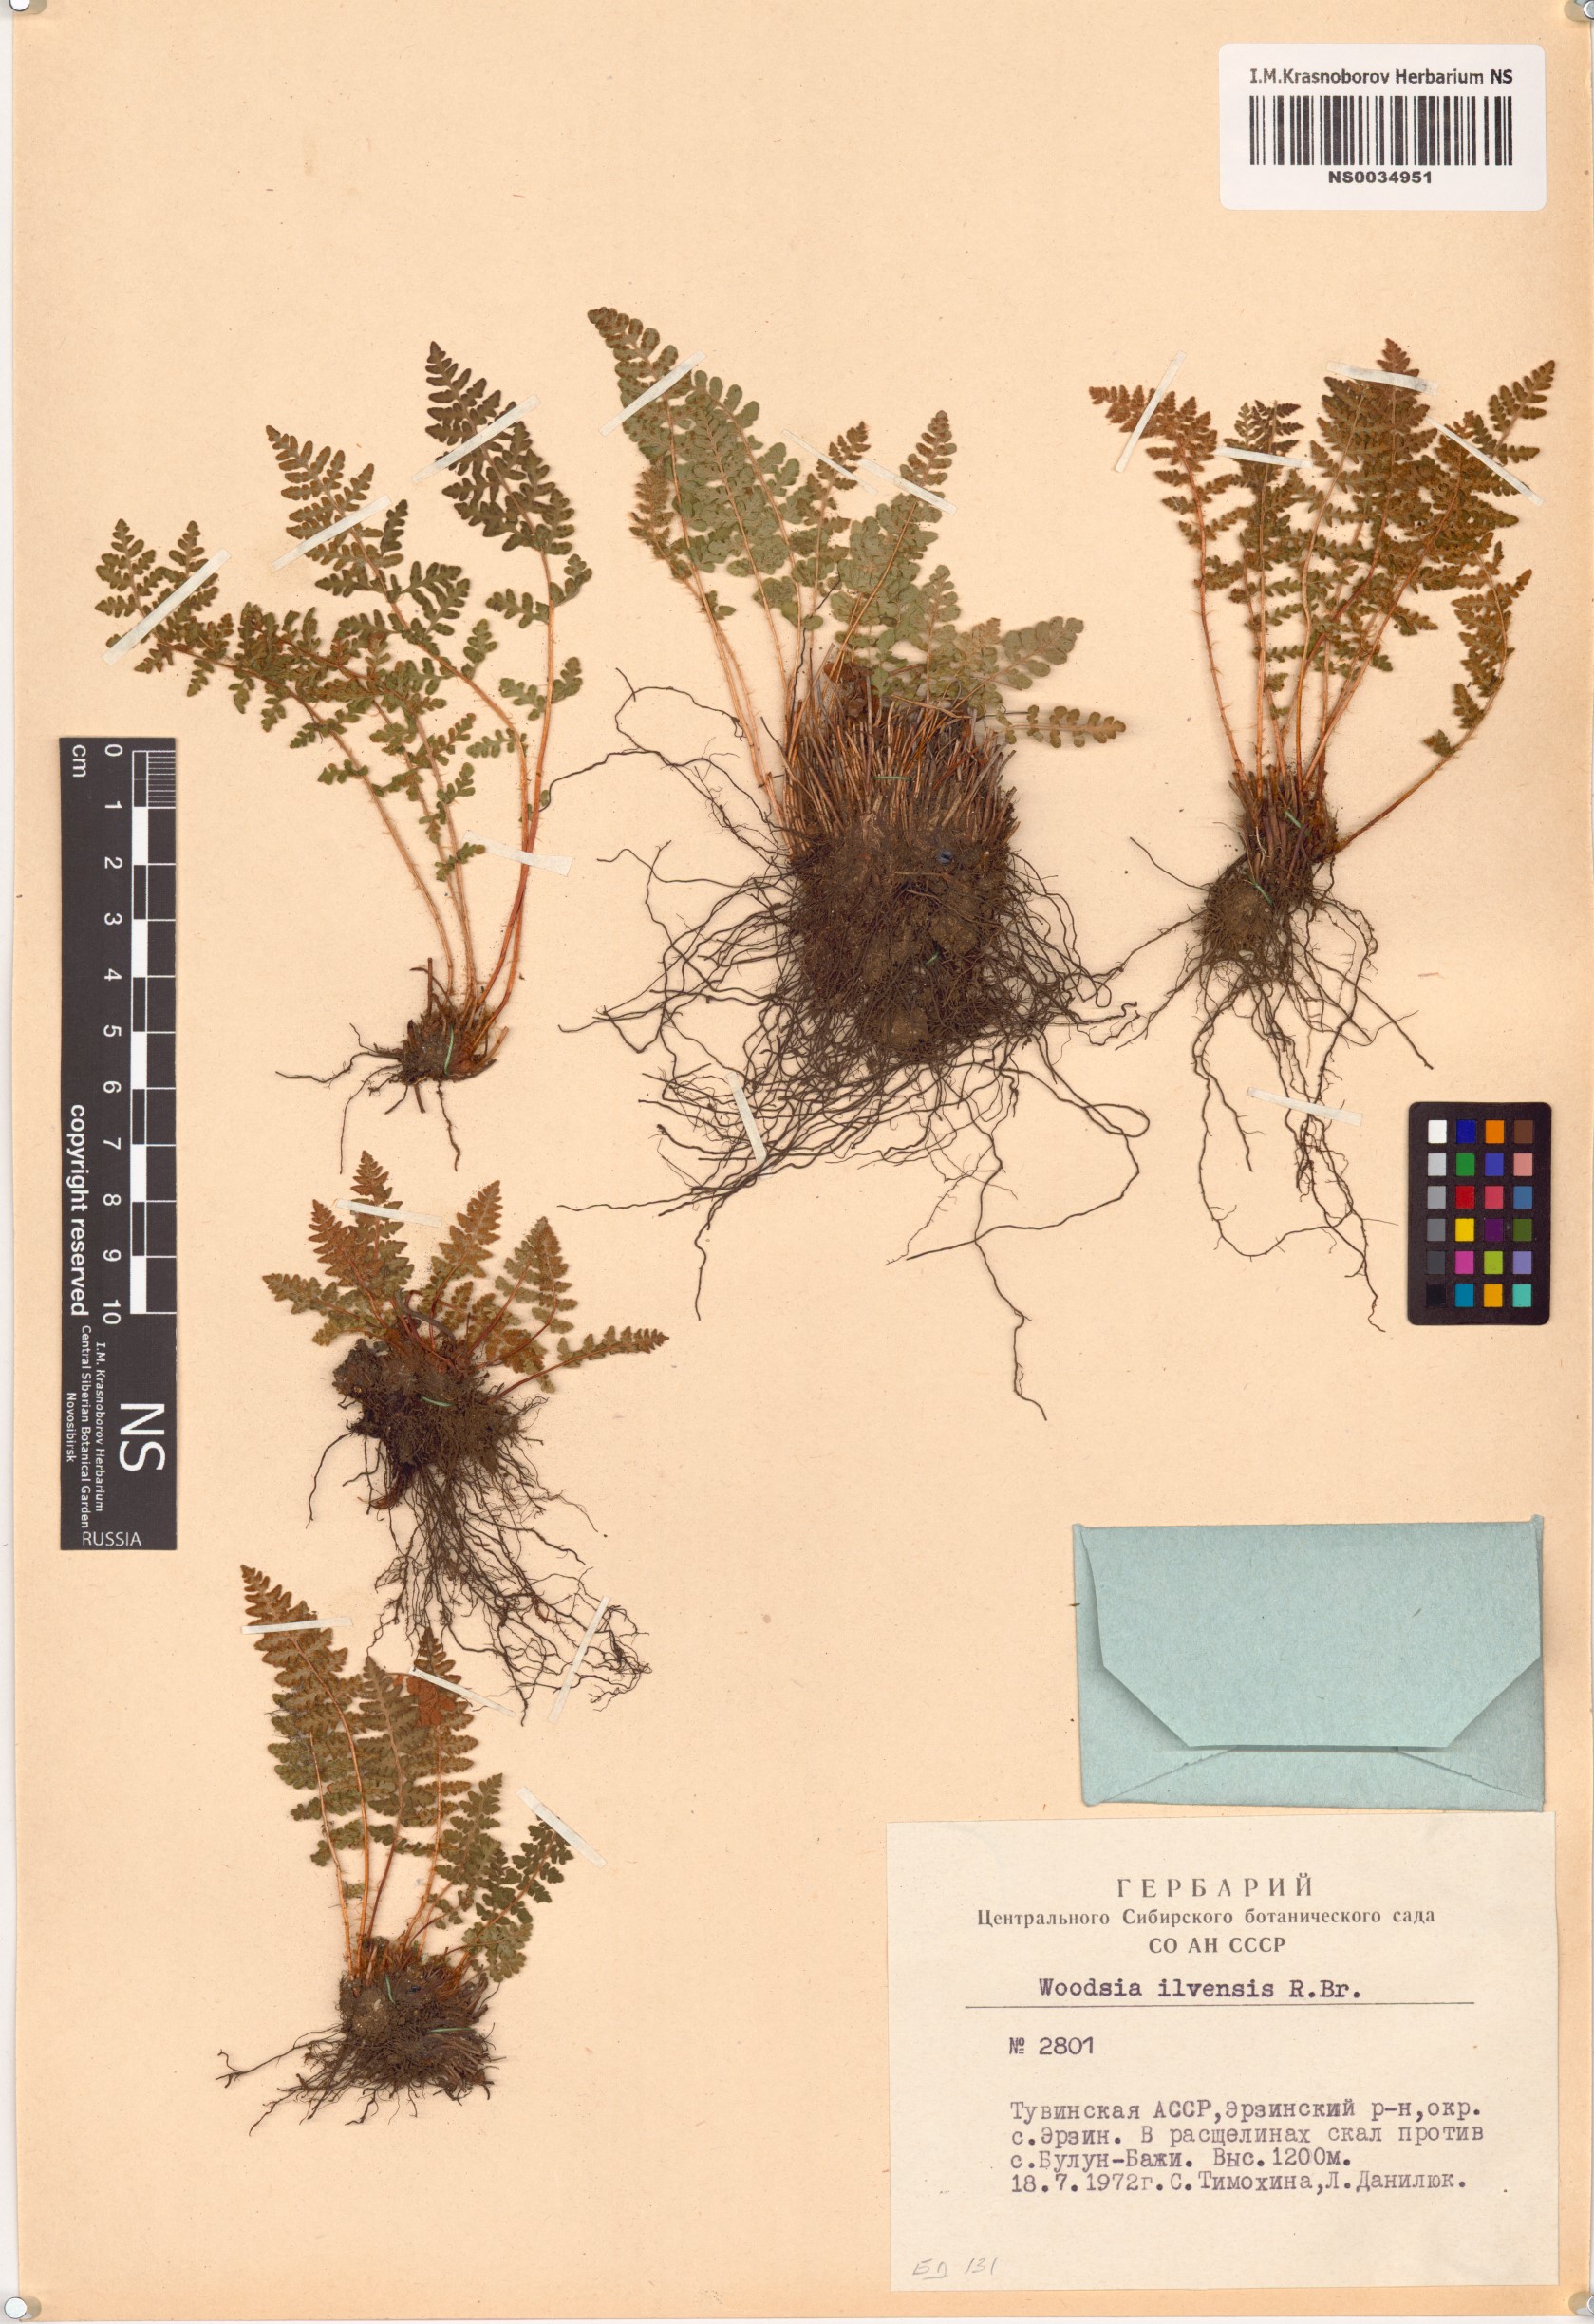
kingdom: Plantae
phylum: Tracheophyta
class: Polypodiopsida
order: Polypodiales
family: Woodsiaceae
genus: Woodsia
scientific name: Woodsia ilvensis
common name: Fragrant woodsia
